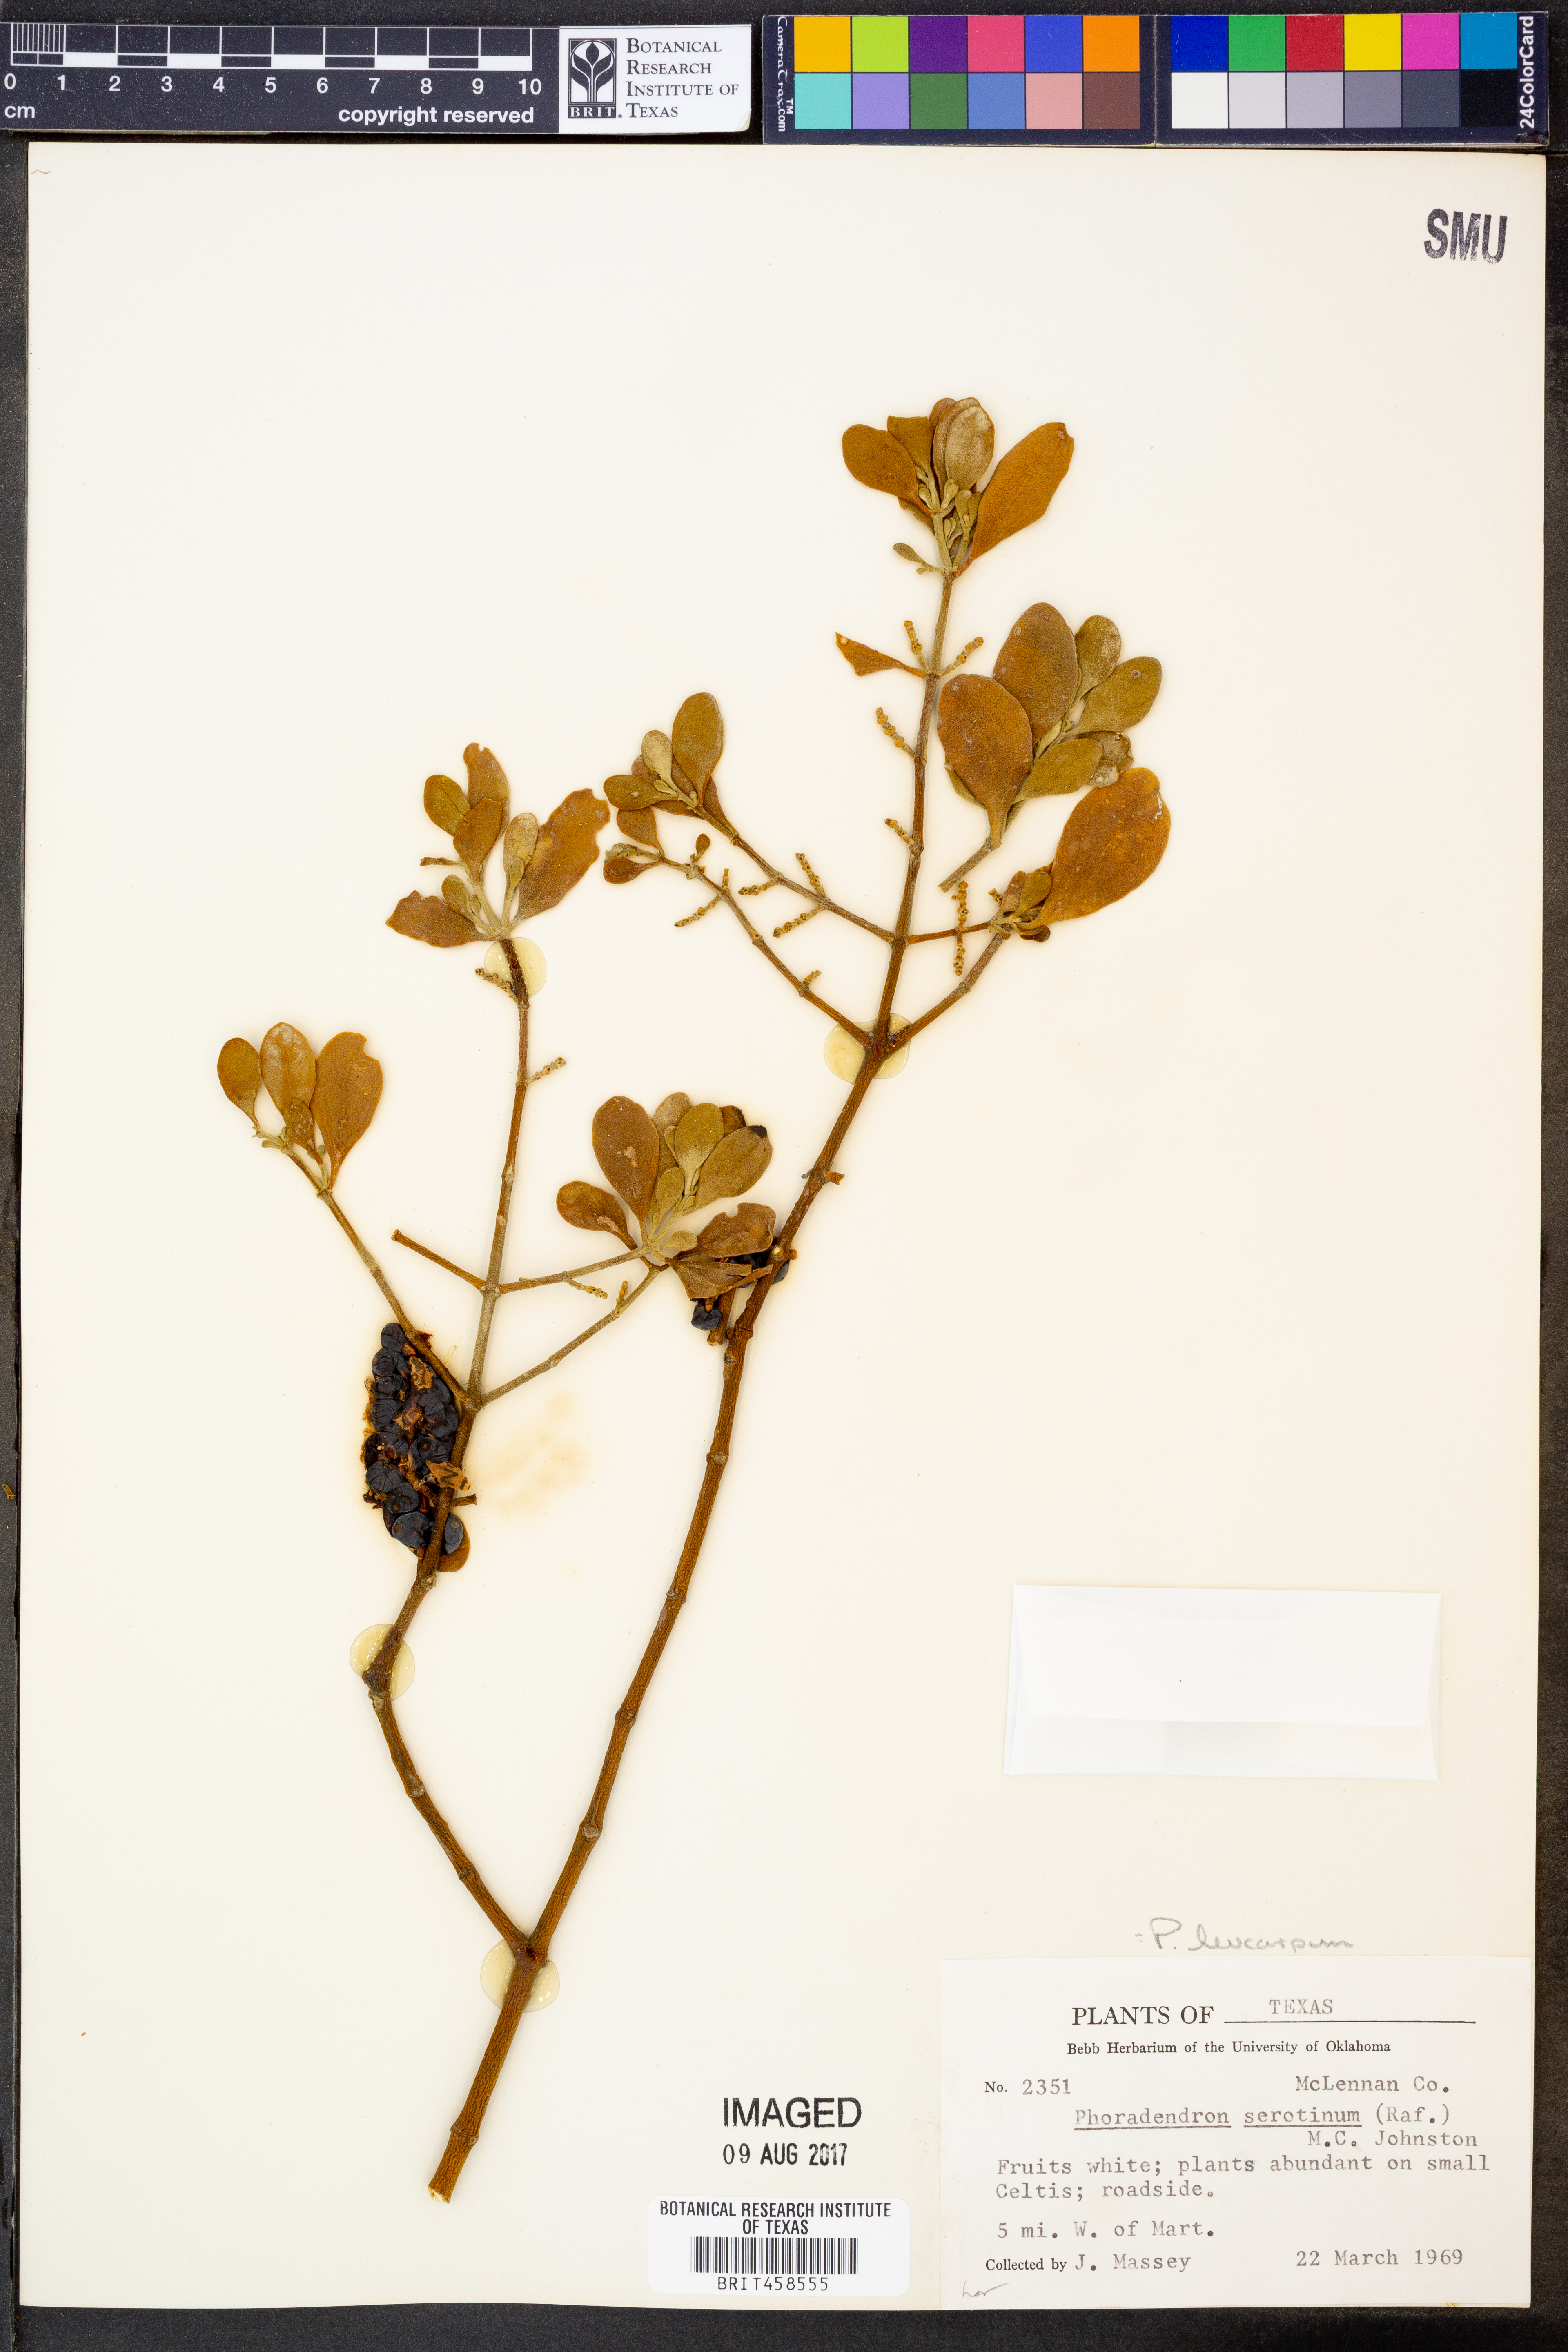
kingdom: Plantae
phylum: Tracheophyta
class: Magnoliopsida
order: Santalales
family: Viscaceae
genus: Phoradendron
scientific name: Phoradendron leucarpum
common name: Pacific mistletoe
